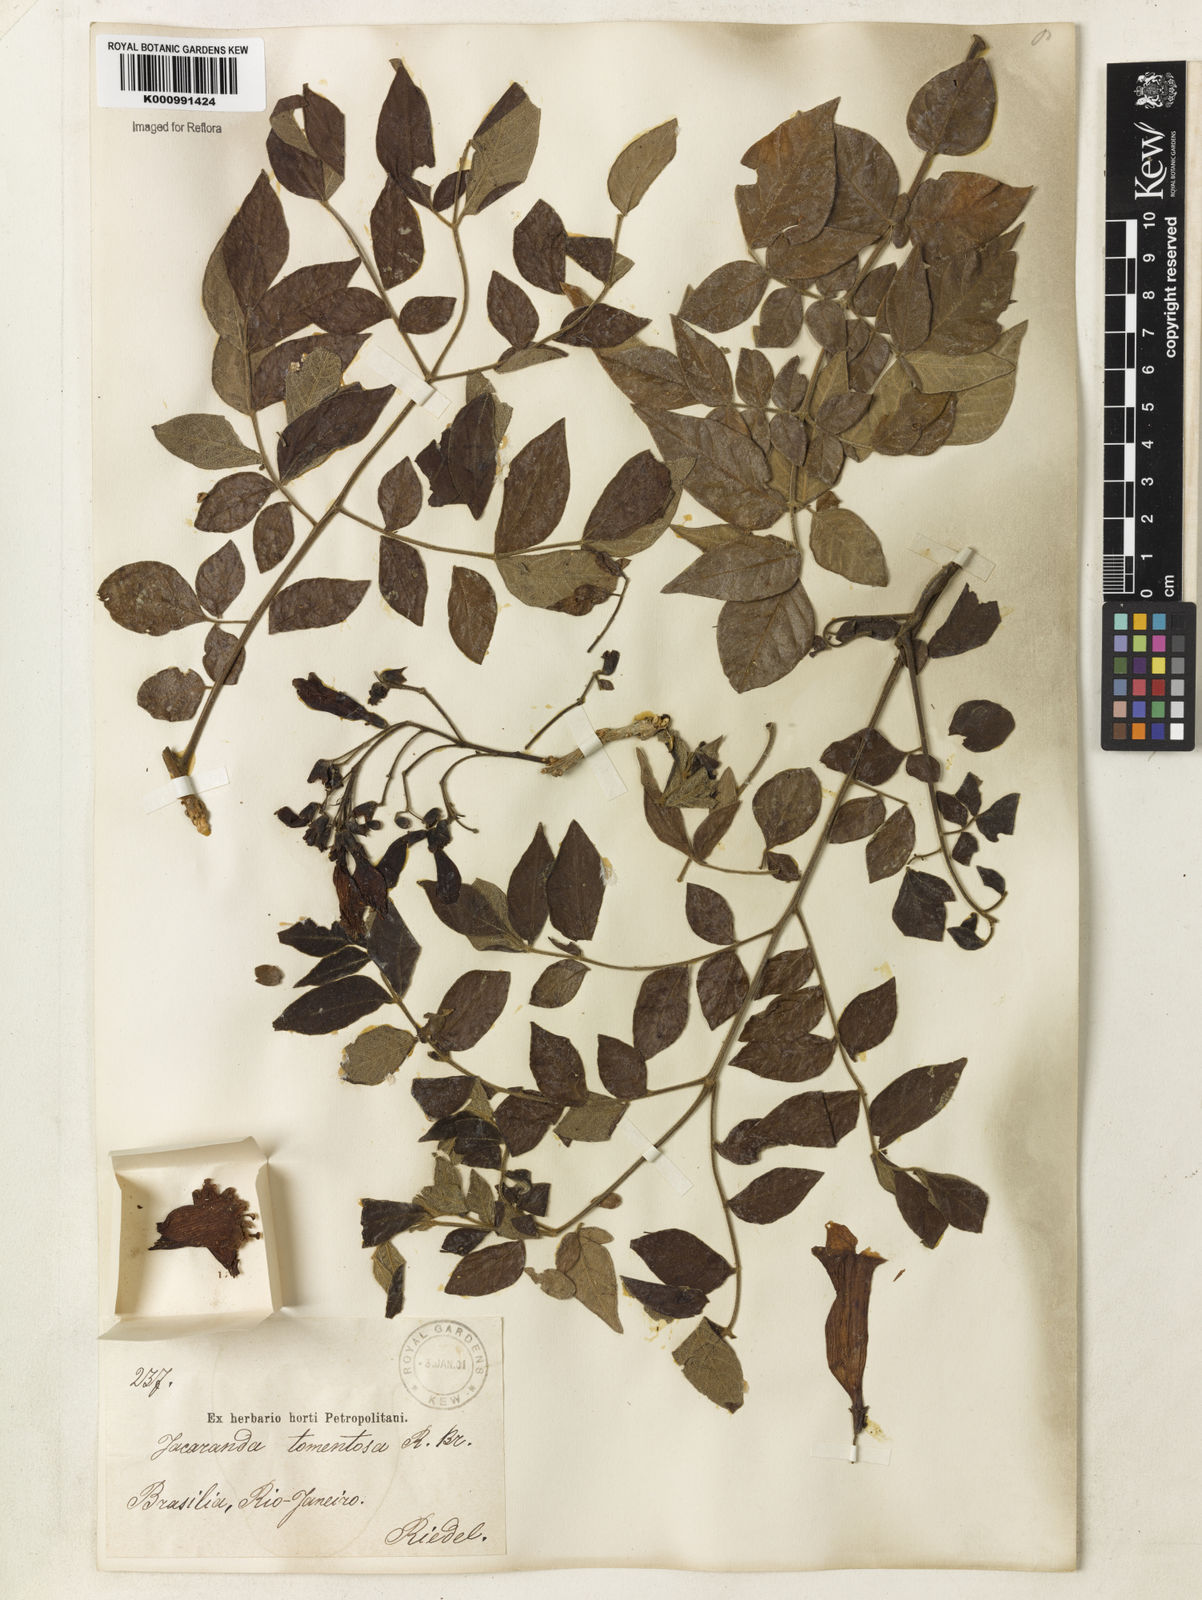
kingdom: Plantae
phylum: Tracheophyta
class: Magnoliopsida
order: Lamiales
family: Bignoniaceae
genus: Jacaranda
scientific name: Jacaranda jasminoides
